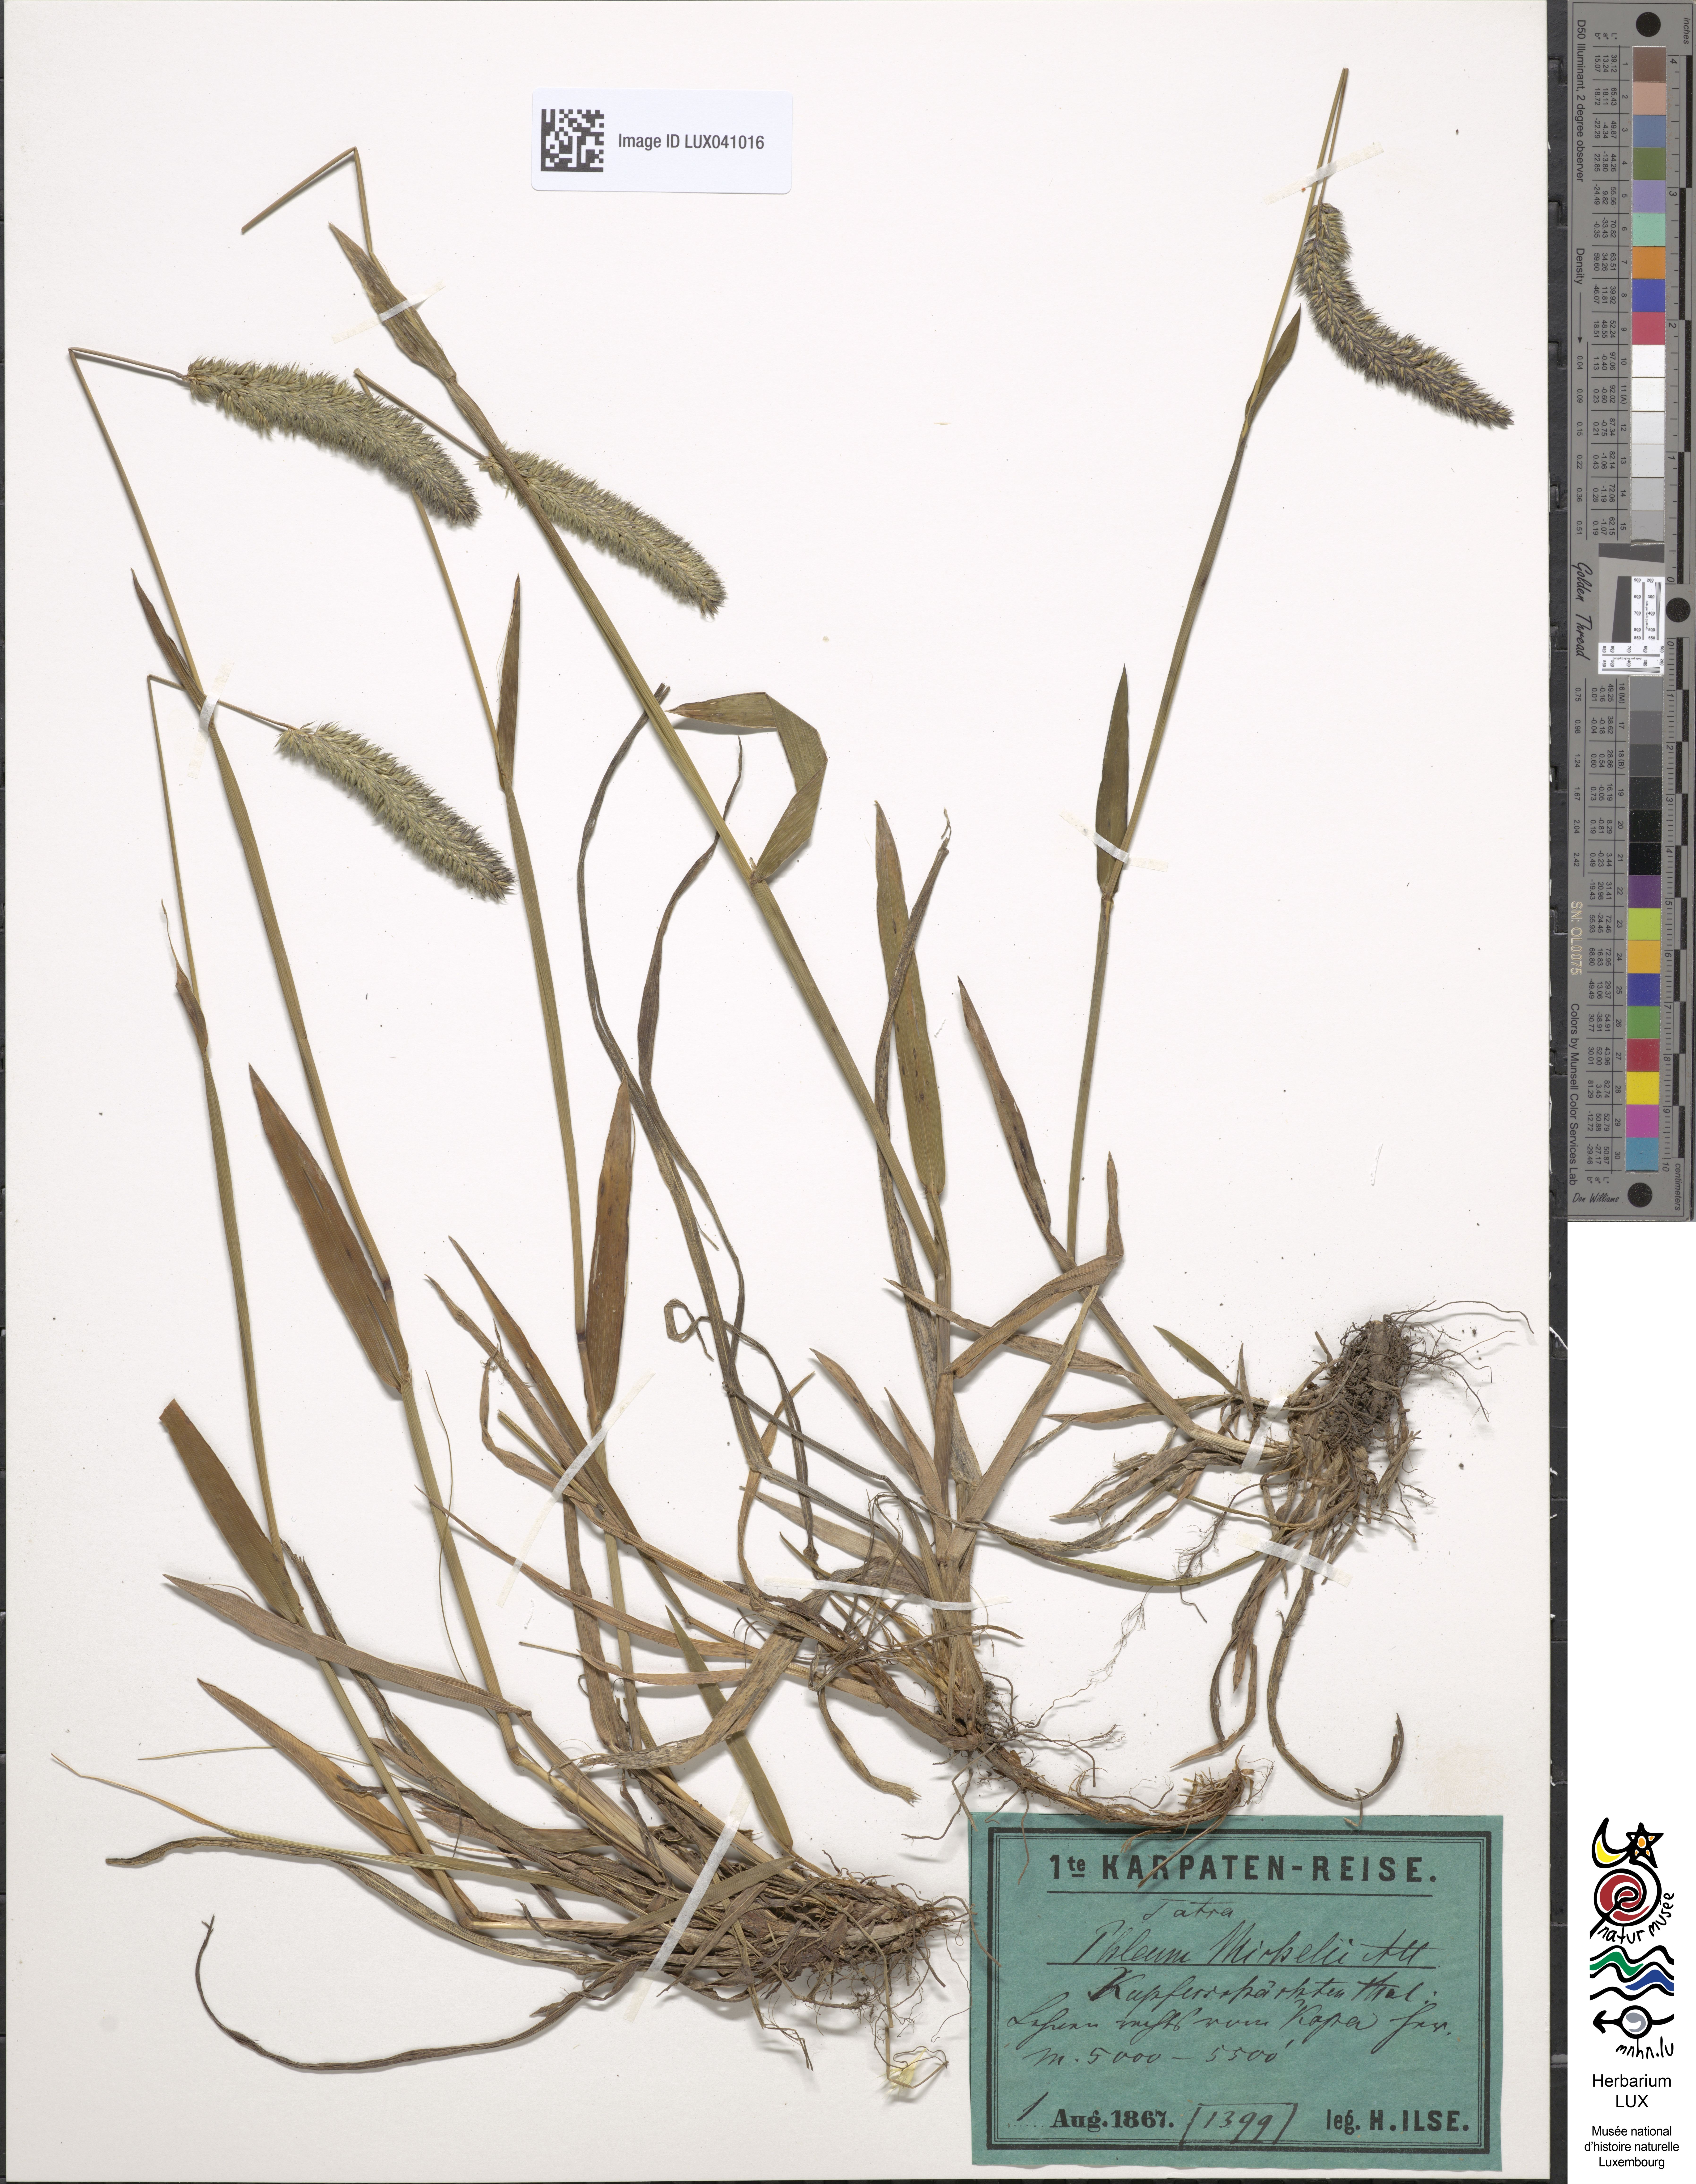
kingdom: Plantae
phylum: Tracheophyta
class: Liliopsida
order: Poales
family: Poaceae
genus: Phleum
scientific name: Phleum hirsutum
